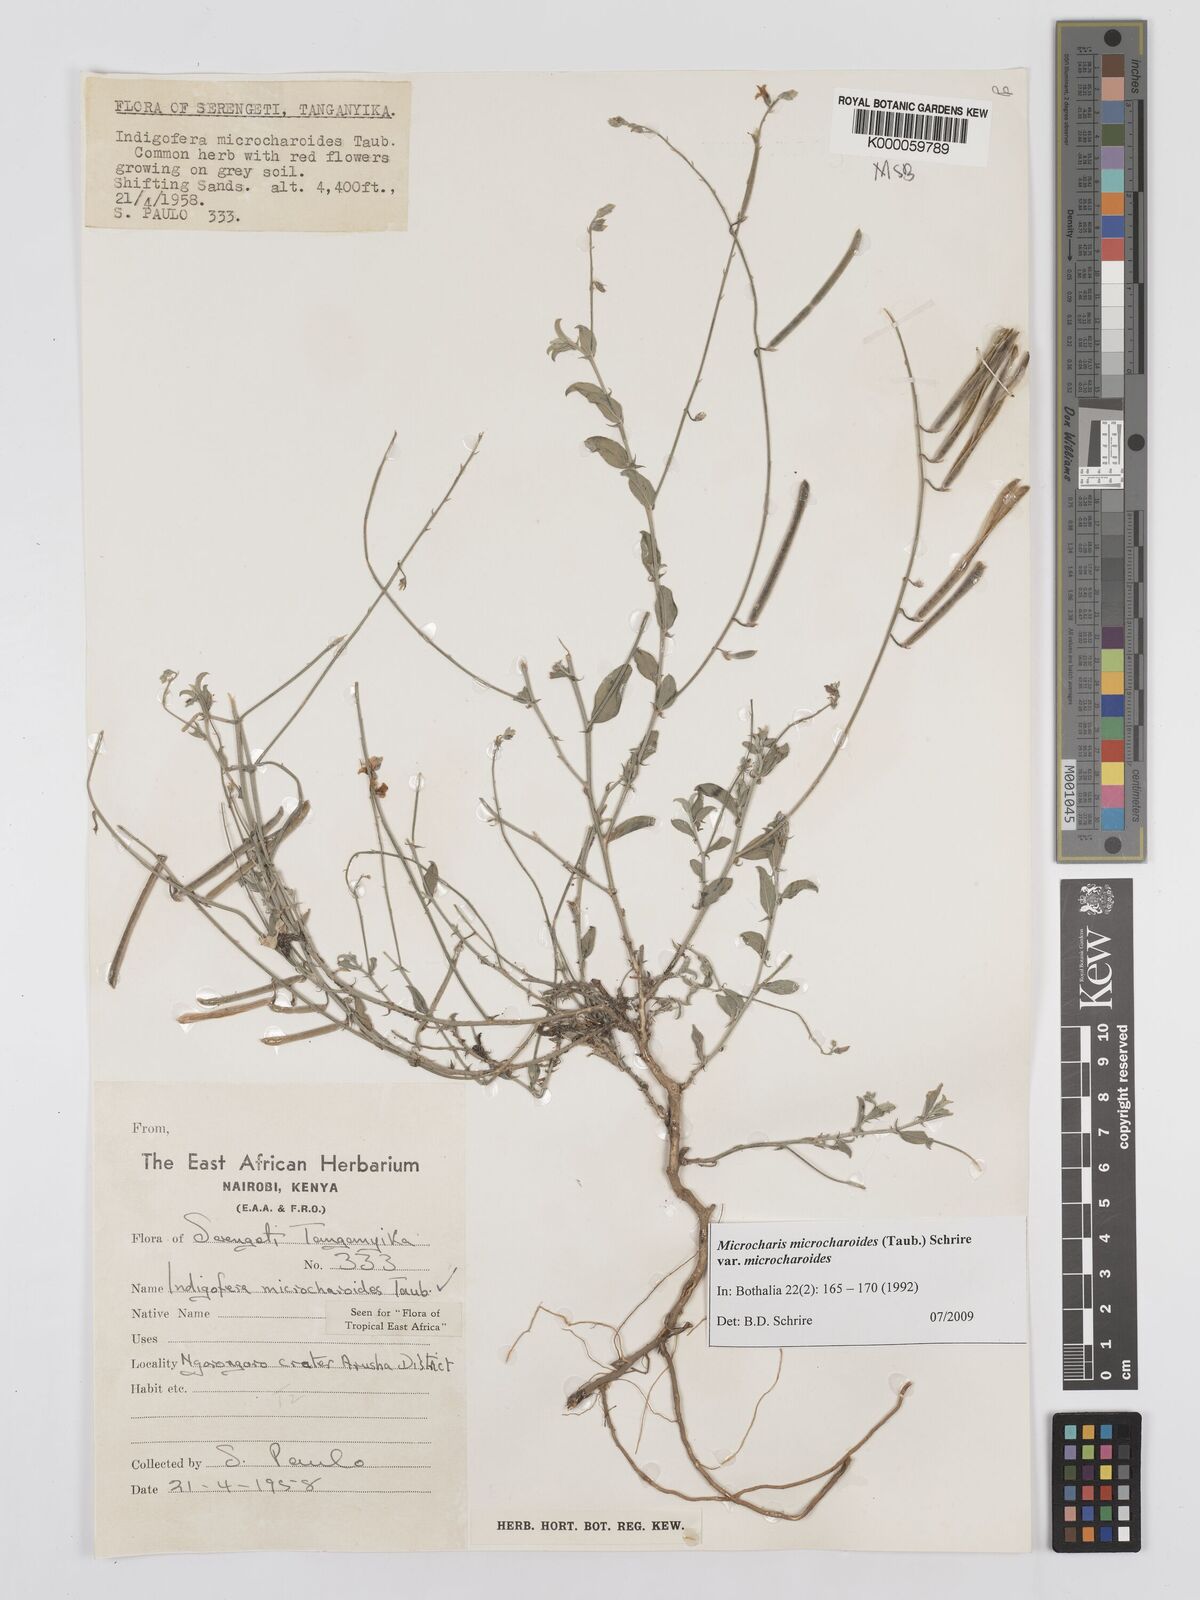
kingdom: Plantae
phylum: Tracheophyta
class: Magnoliopsida
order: Fabales
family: Fabaceae
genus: Microcharis
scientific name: Microcharis microcharoides
